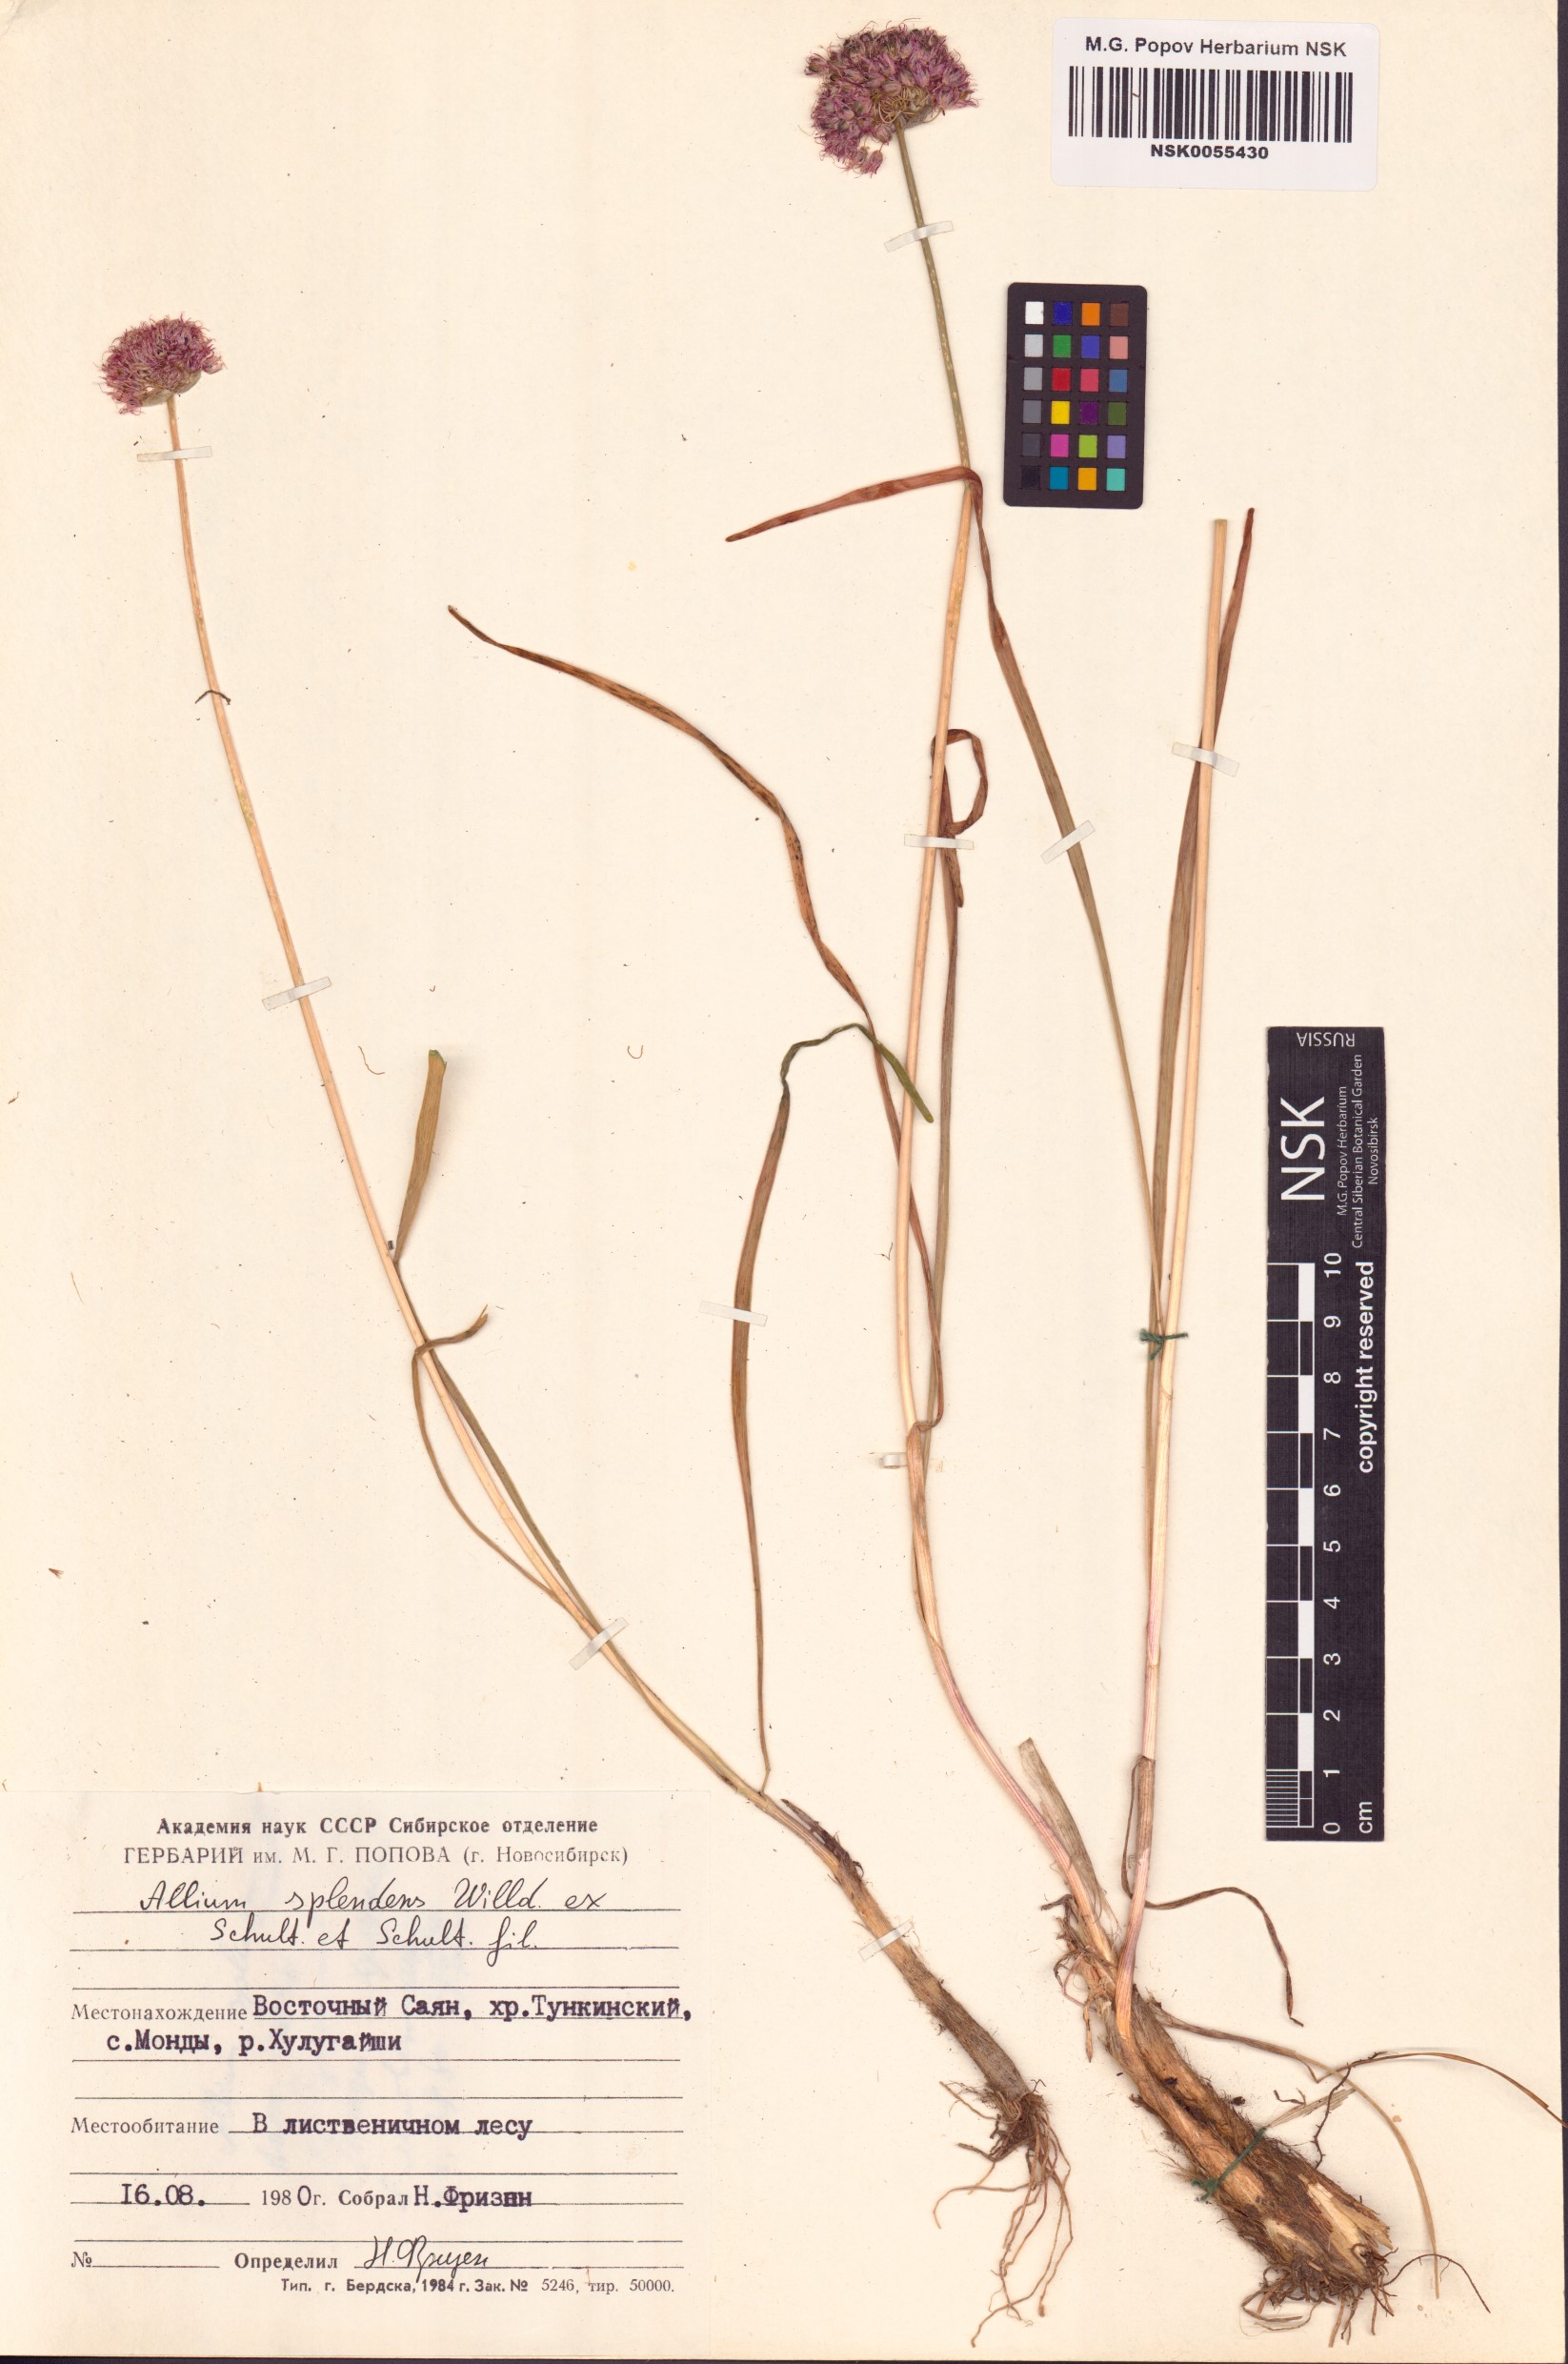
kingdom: Plantae
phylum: Tracheophyta
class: Liliopsida
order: Asparagales
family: Amaryllidaceae
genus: Allium
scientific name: Allium splendens
